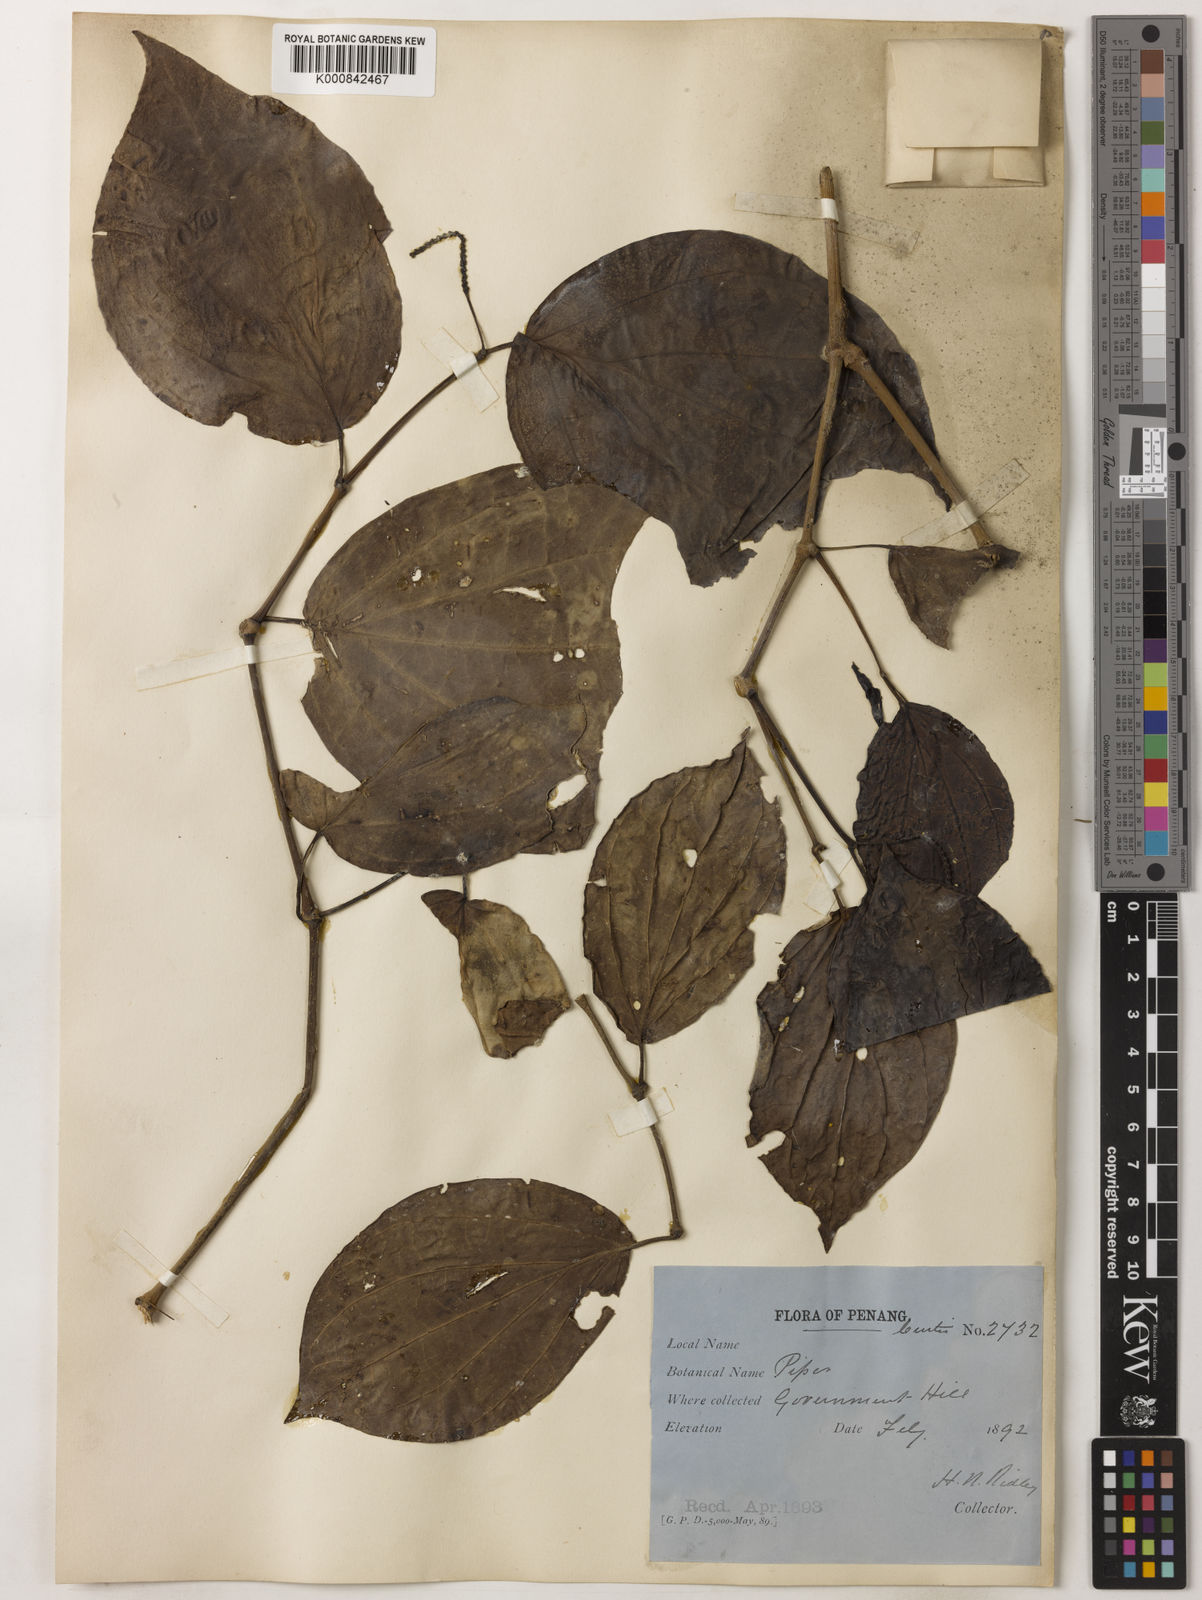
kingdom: Plantae
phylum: Tracheophyta
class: Magnoliopsida
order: Piperales
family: Piperaceae
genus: Piper
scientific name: Piper porphyrophyllum
